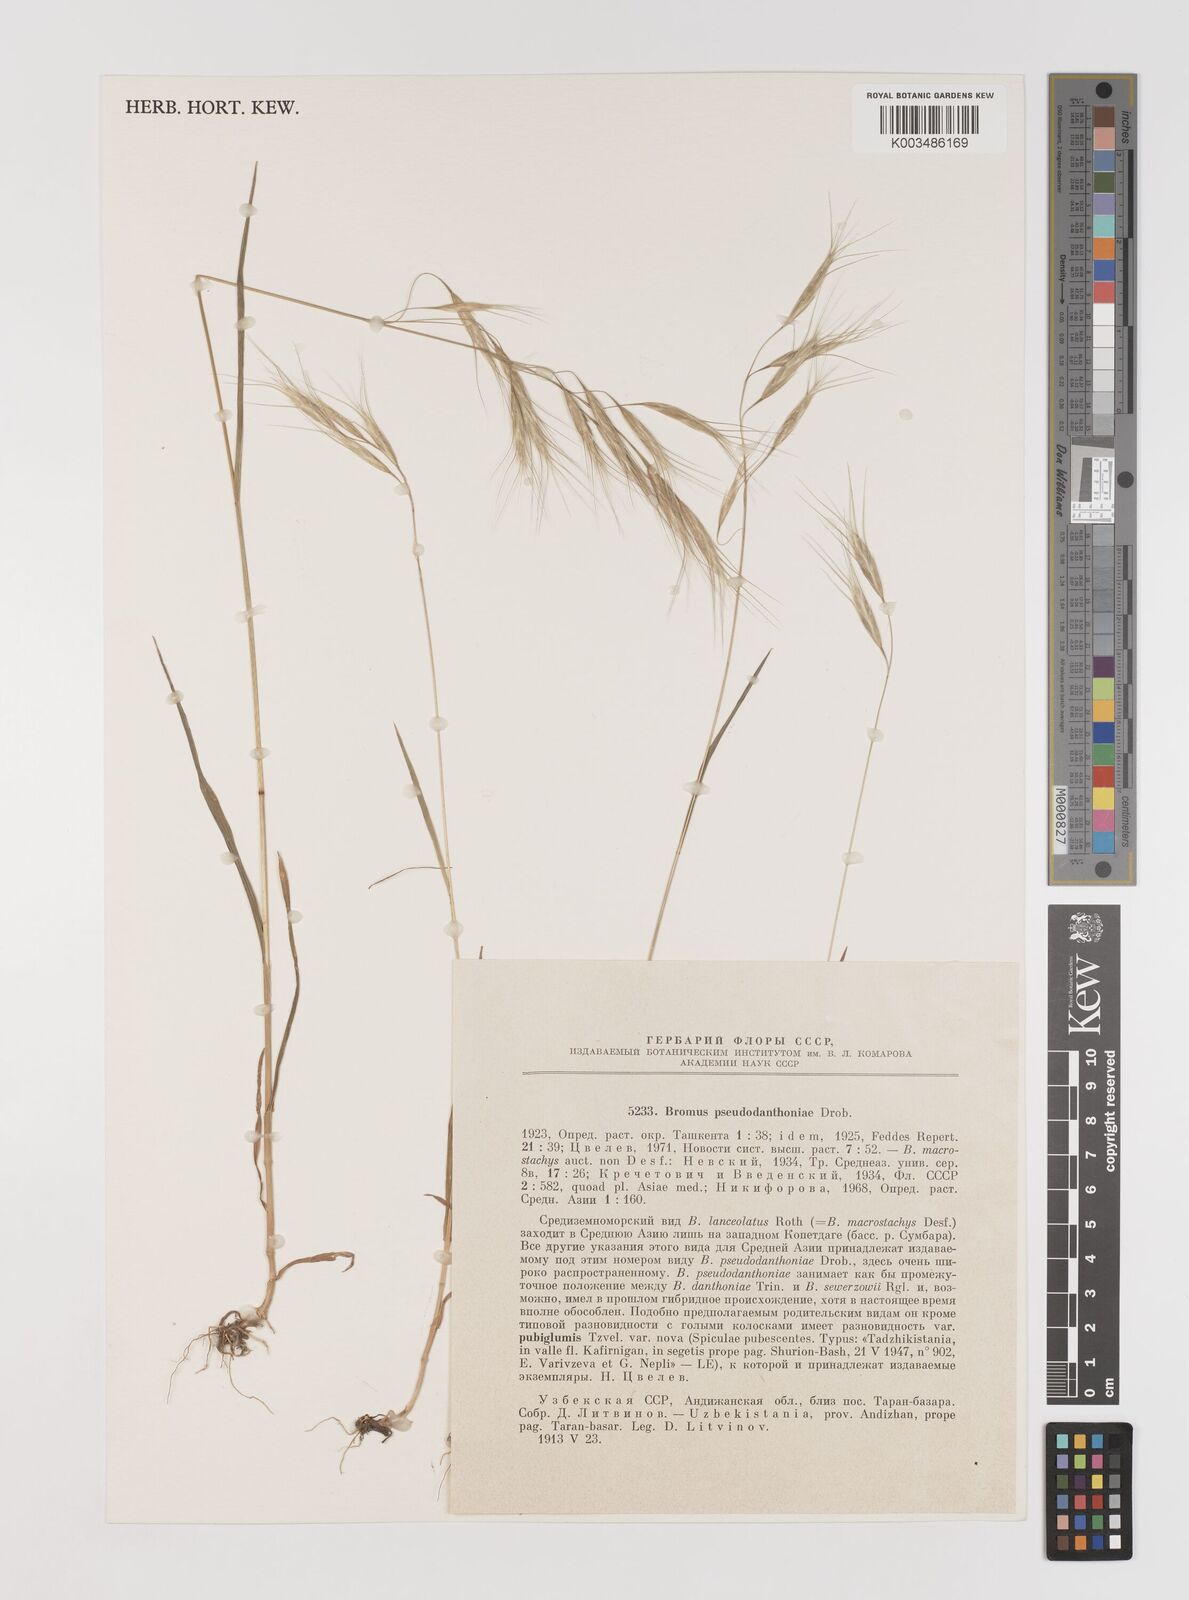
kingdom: Plantae
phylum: Tracheophyta
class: Liliopsida
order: Poales
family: Poaceae
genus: Bromus
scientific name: Bromus danthoniae
